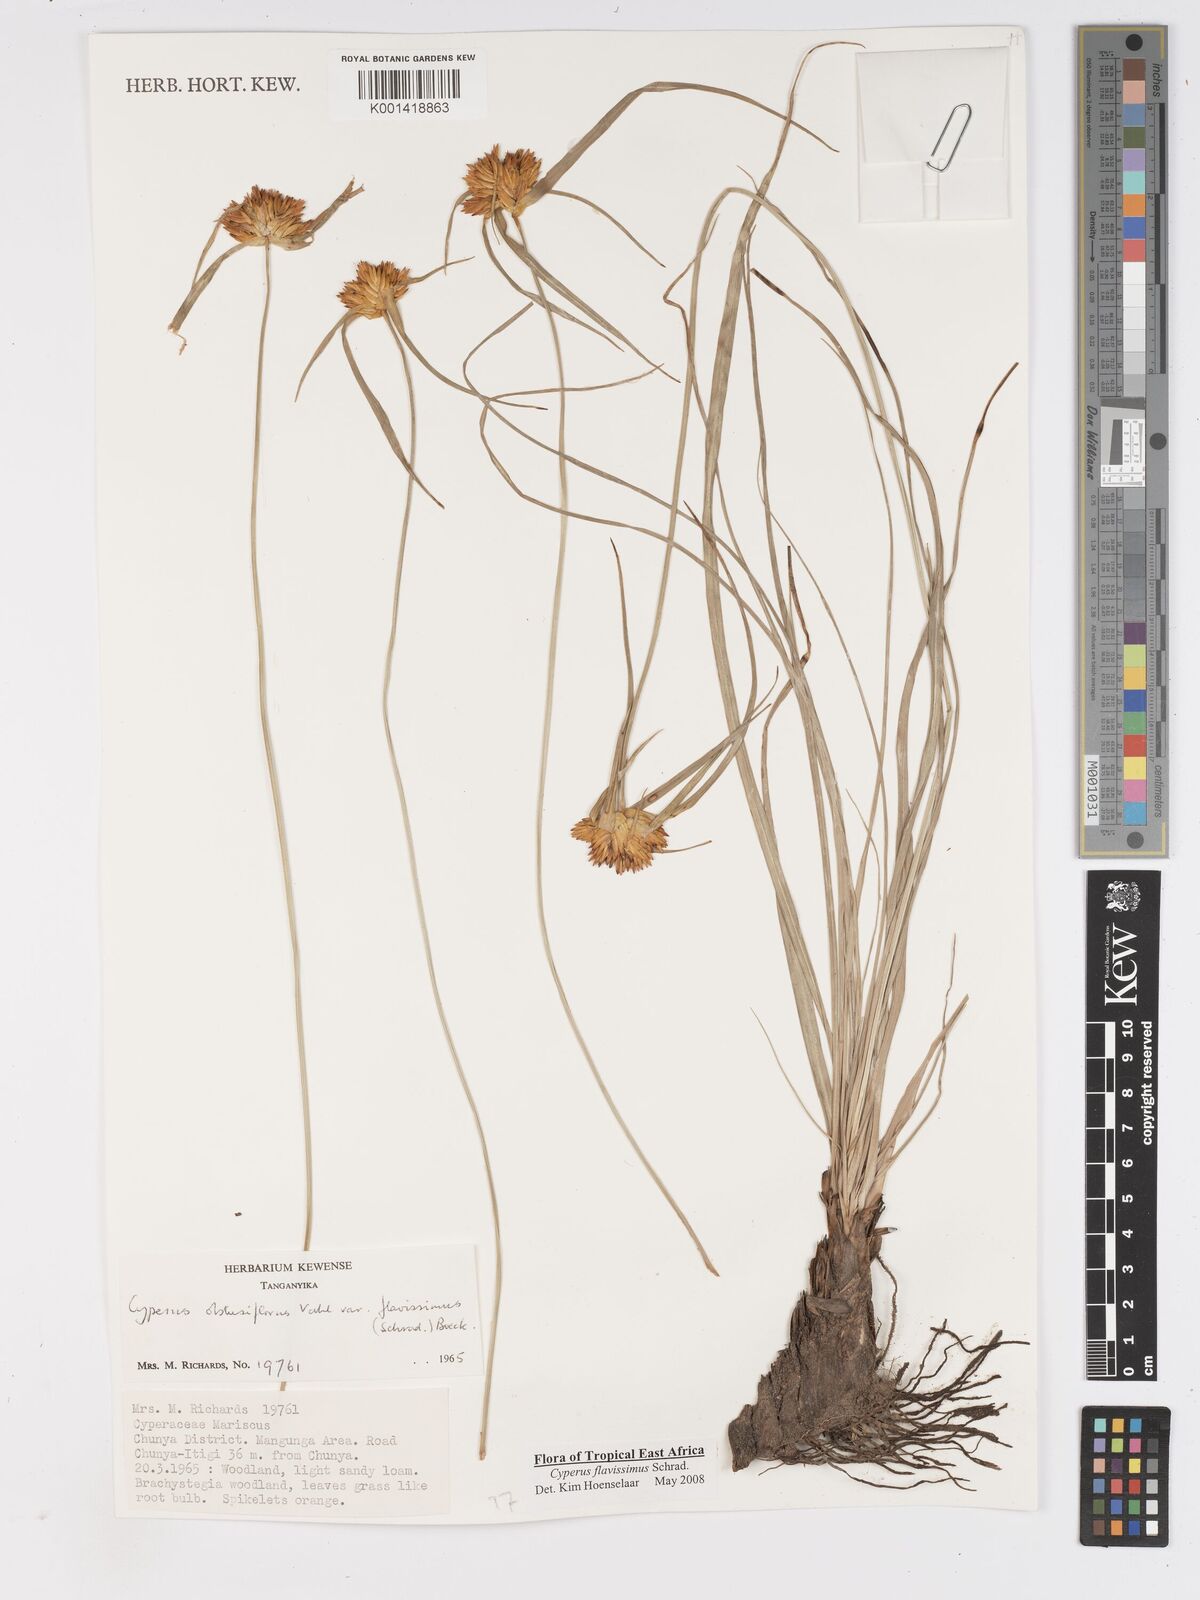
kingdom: Plantae
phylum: Tracheophyta
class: Liliopsida
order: Poales
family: Cyperaceae
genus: Cyperus
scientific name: Cyperus sphaerocephalus
